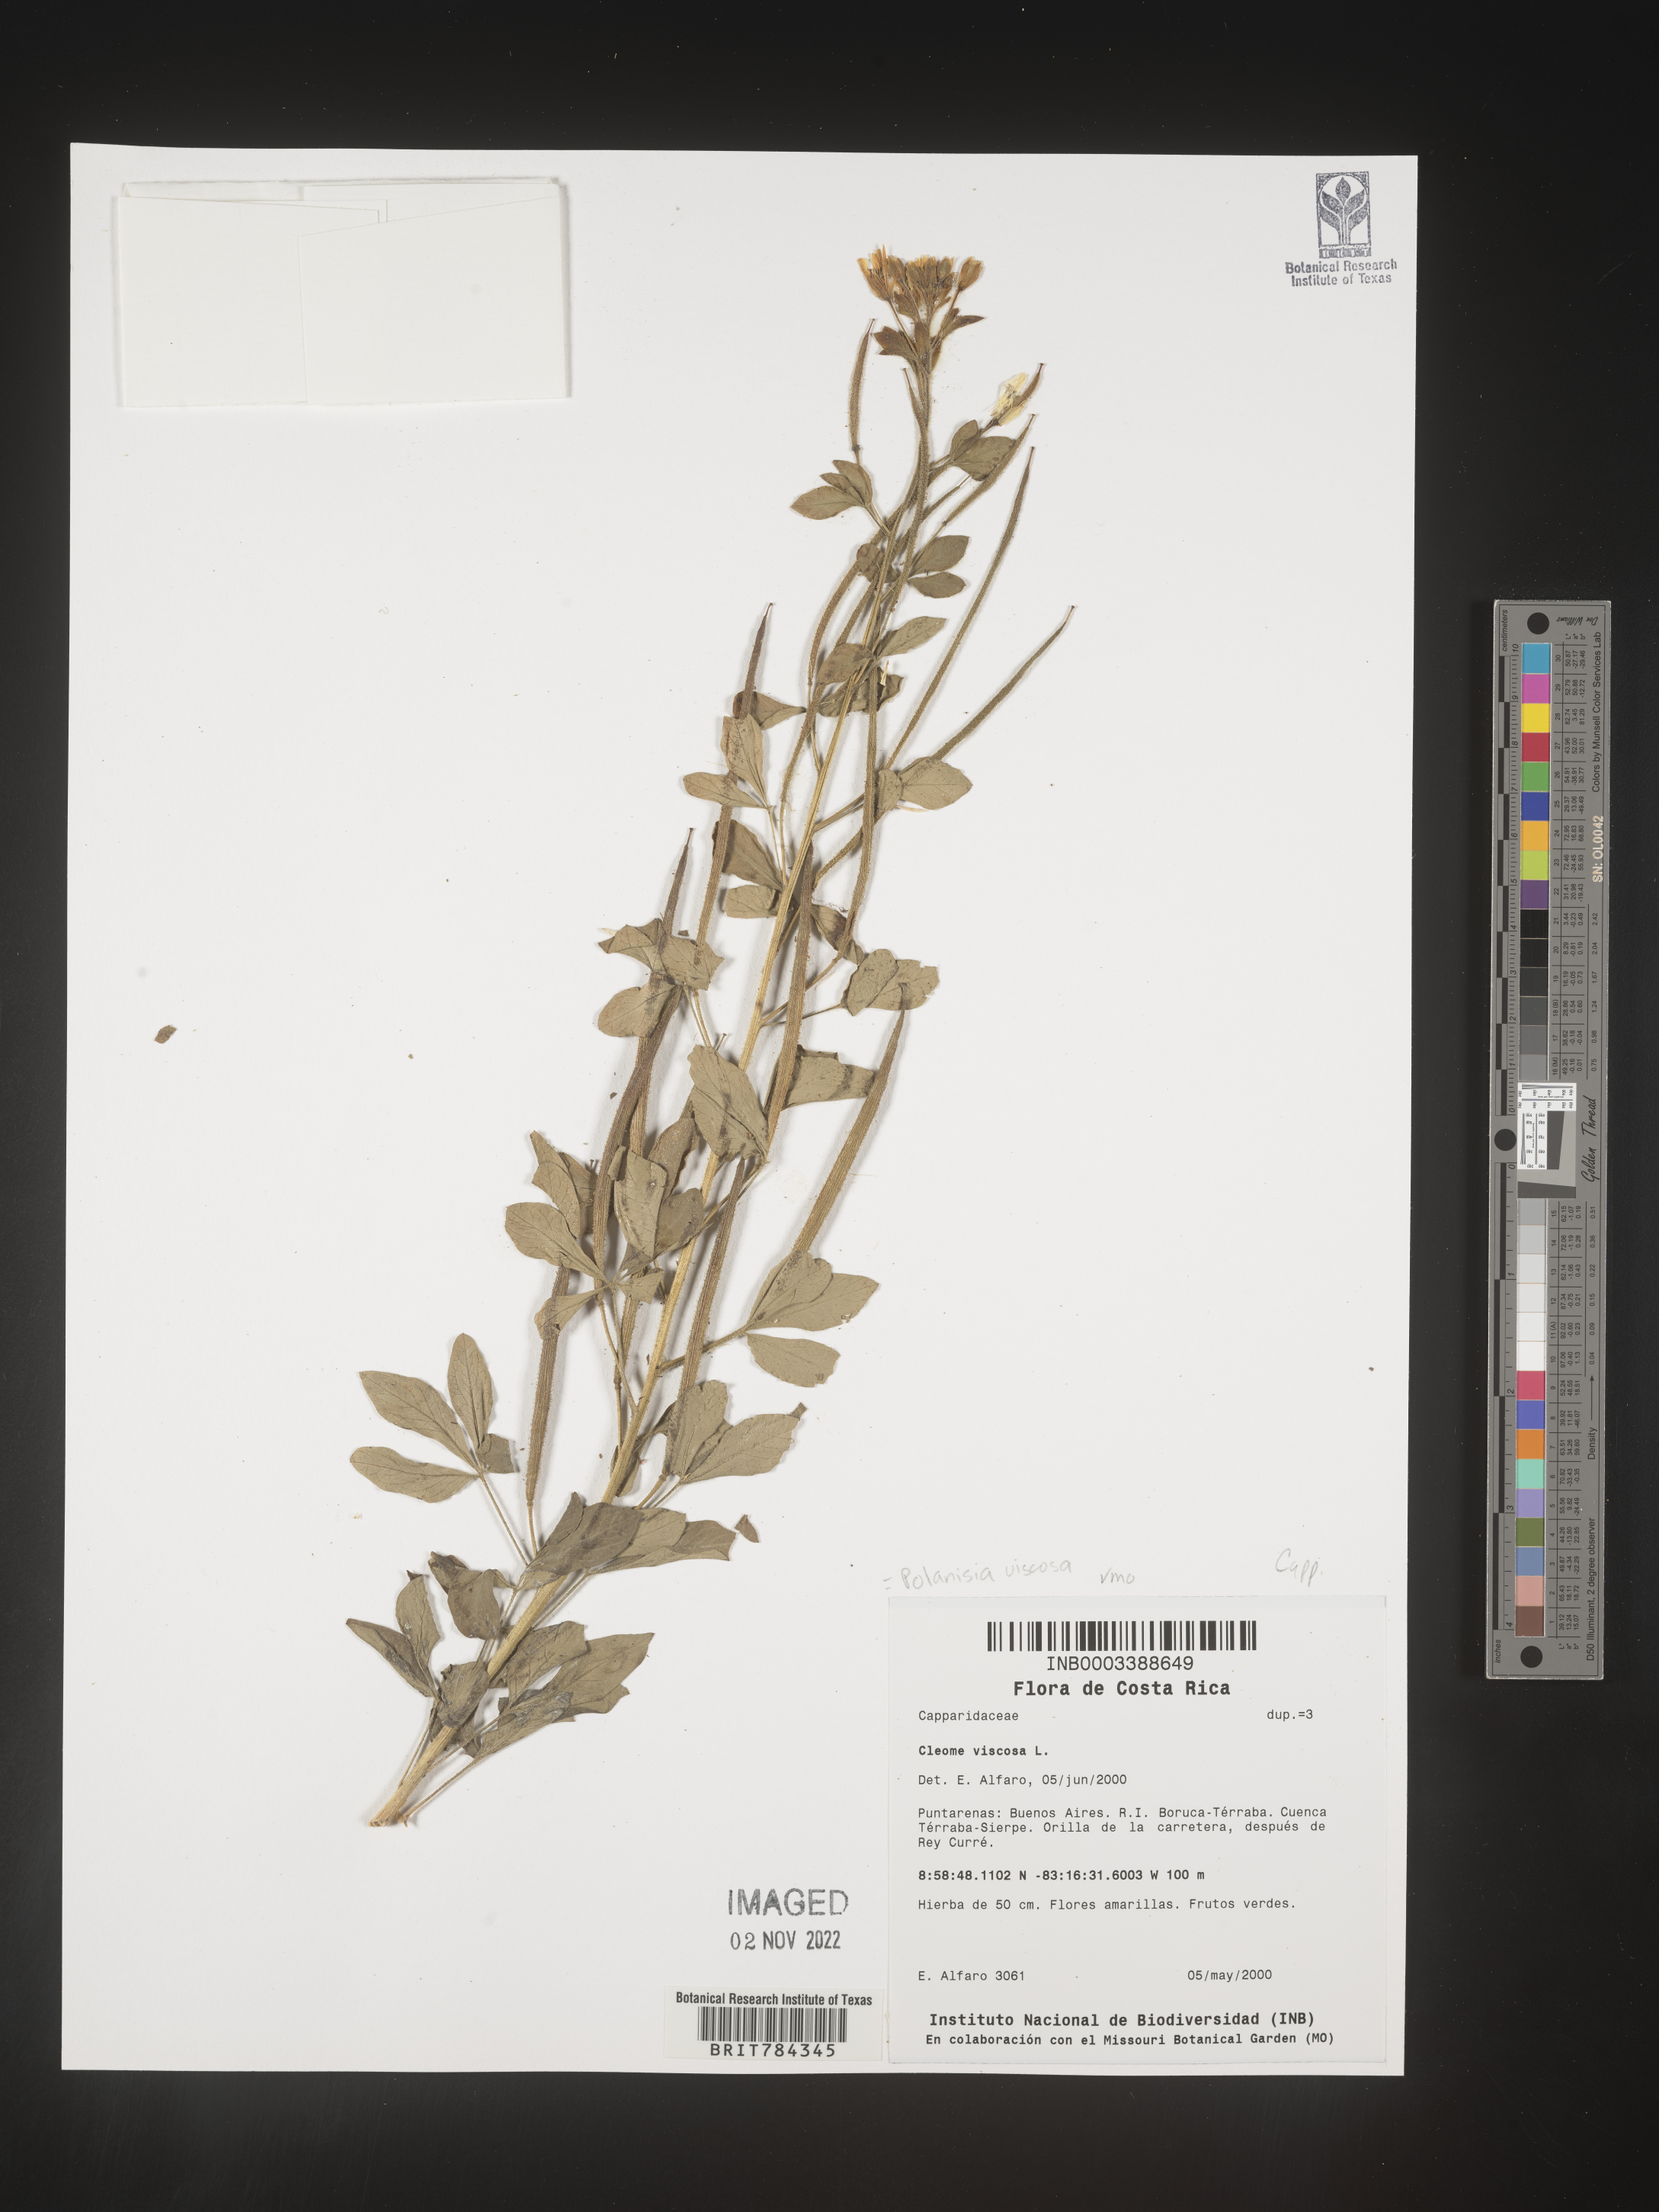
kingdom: Plantae
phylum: Tracheophyta
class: Magnoliopsida
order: Brassicales
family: Cleomaceae
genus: Cleome
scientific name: Cleome
